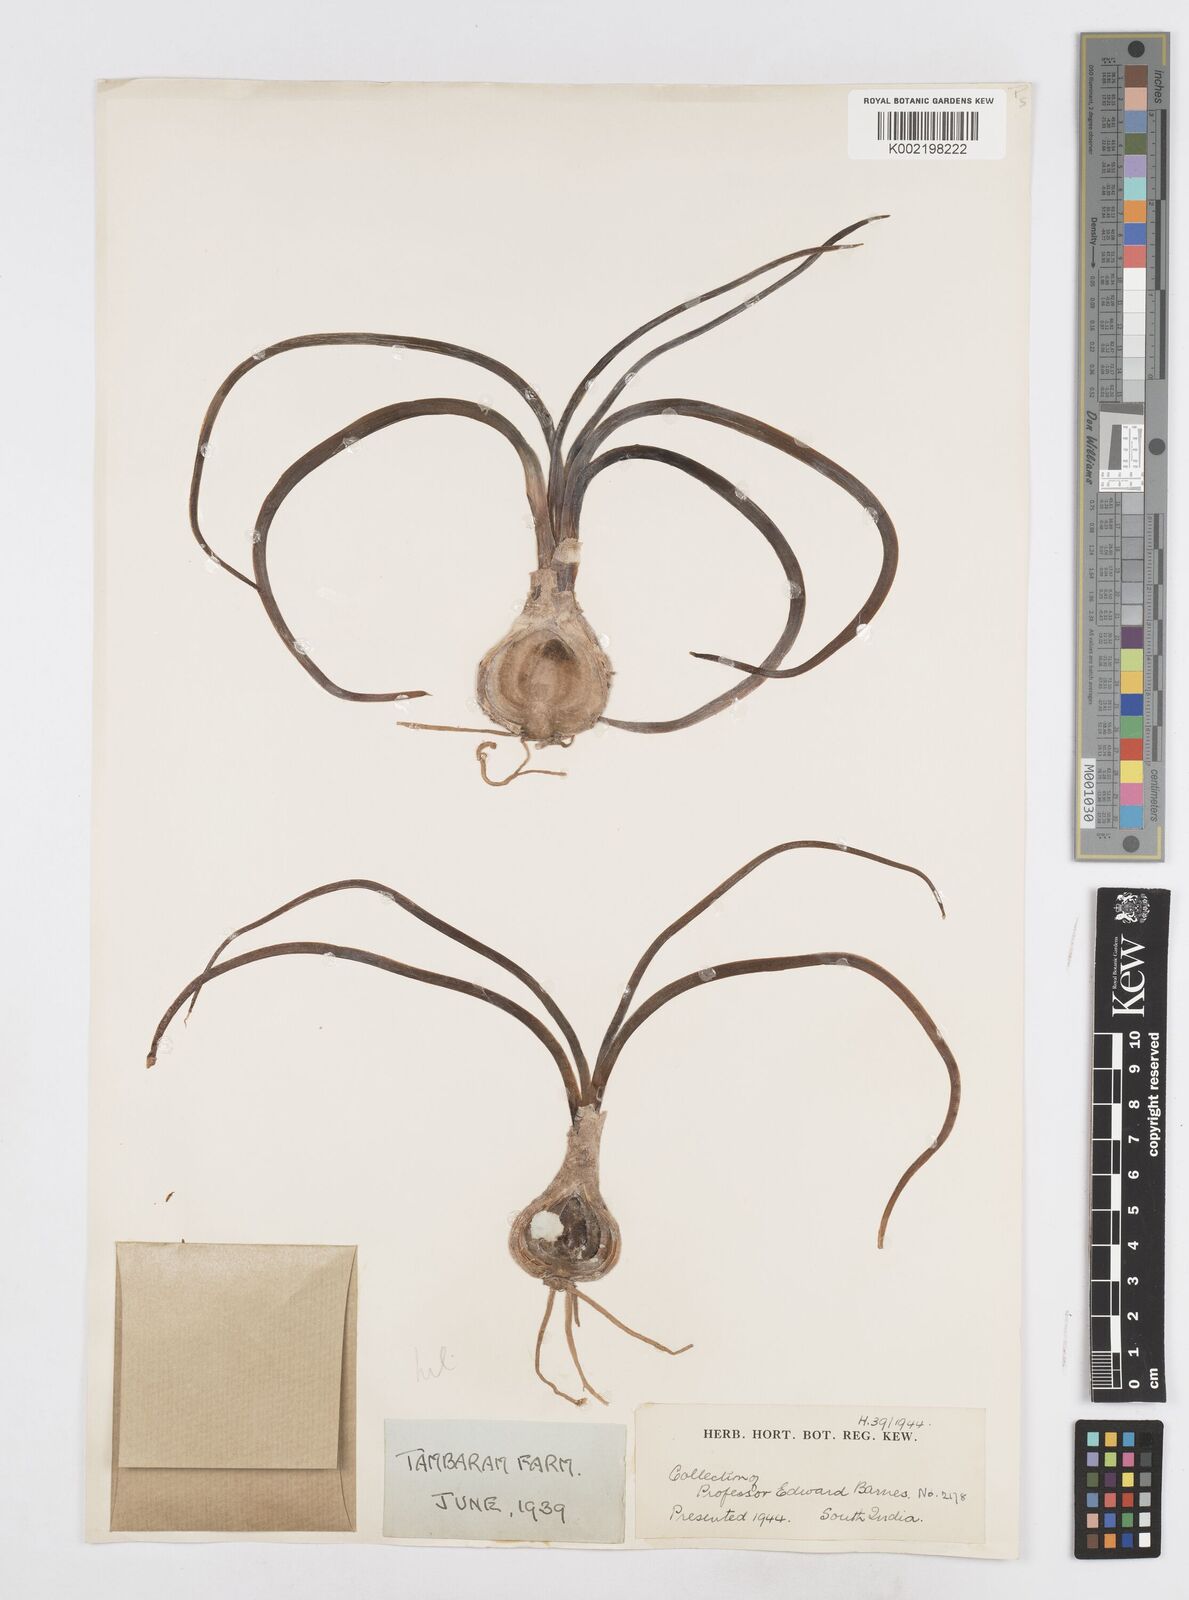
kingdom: Plantae
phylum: Tracheophyta
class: Liliopsida
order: Asparagales
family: Asparagaceae
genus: Drimia
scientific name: Drimia indica
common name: Indian-squill
